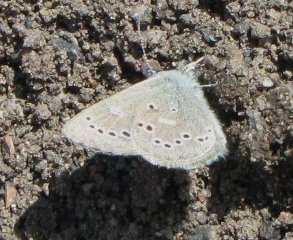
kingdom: Animalia
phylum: Arthropoda
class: Insecta
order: Lepidoptera
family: Lycaenidae
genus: Glaucopsyche
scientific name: Glaucopsyche lygdamus
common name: Silvery Blue
